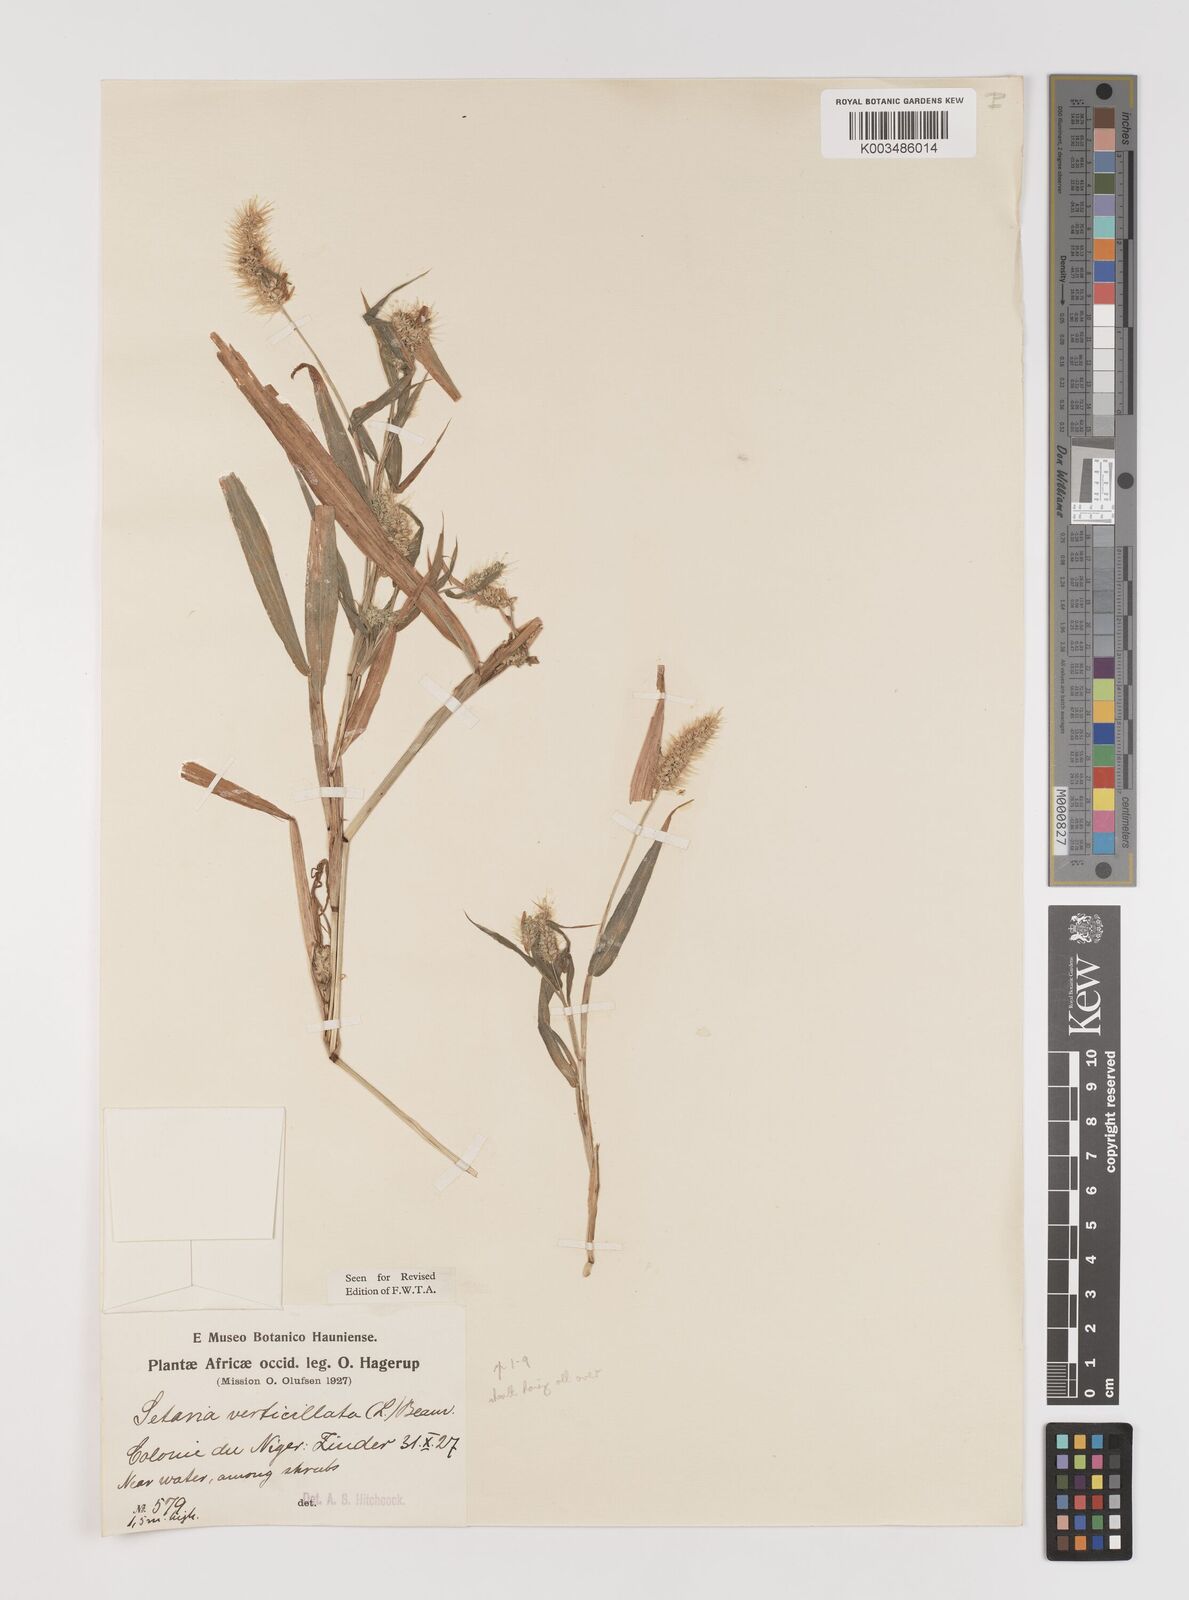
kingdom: Plantae
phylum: Tracheophyta
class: Liliopsida
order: Poales
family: Poaceae
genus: Setaria
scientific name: Setaria verticillata
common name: Hooked bristlegrass
